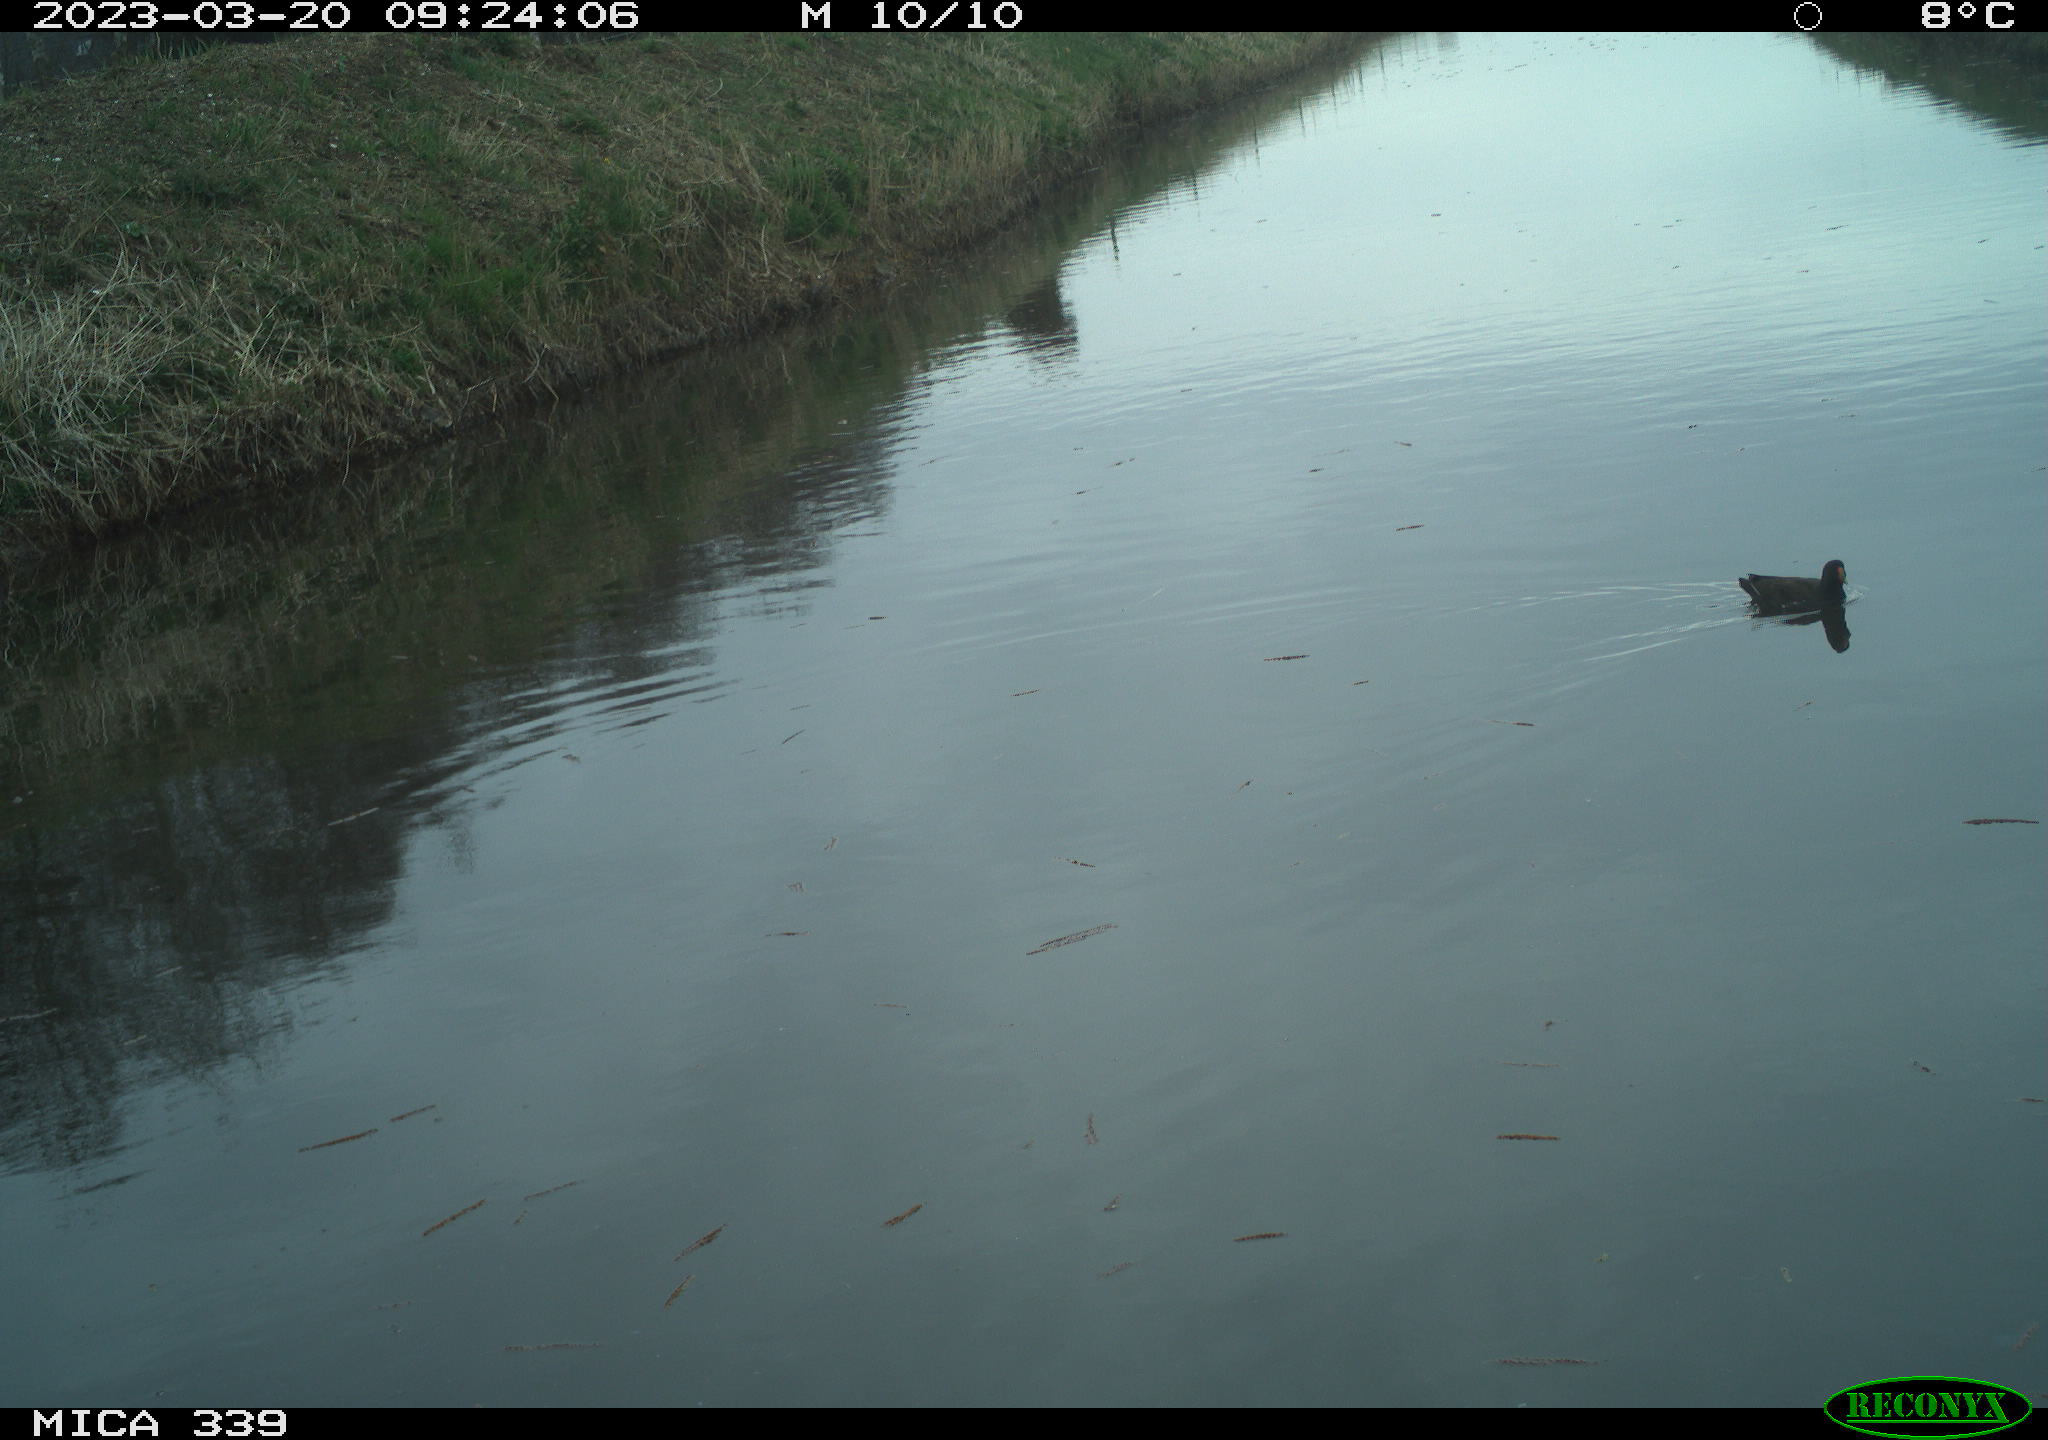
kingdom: Animalia
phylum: Chordata
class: Aves
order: Gruiformes
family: Rallidae
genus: Gallinula
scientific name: Gallinula chloropus
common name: Common moorhen
